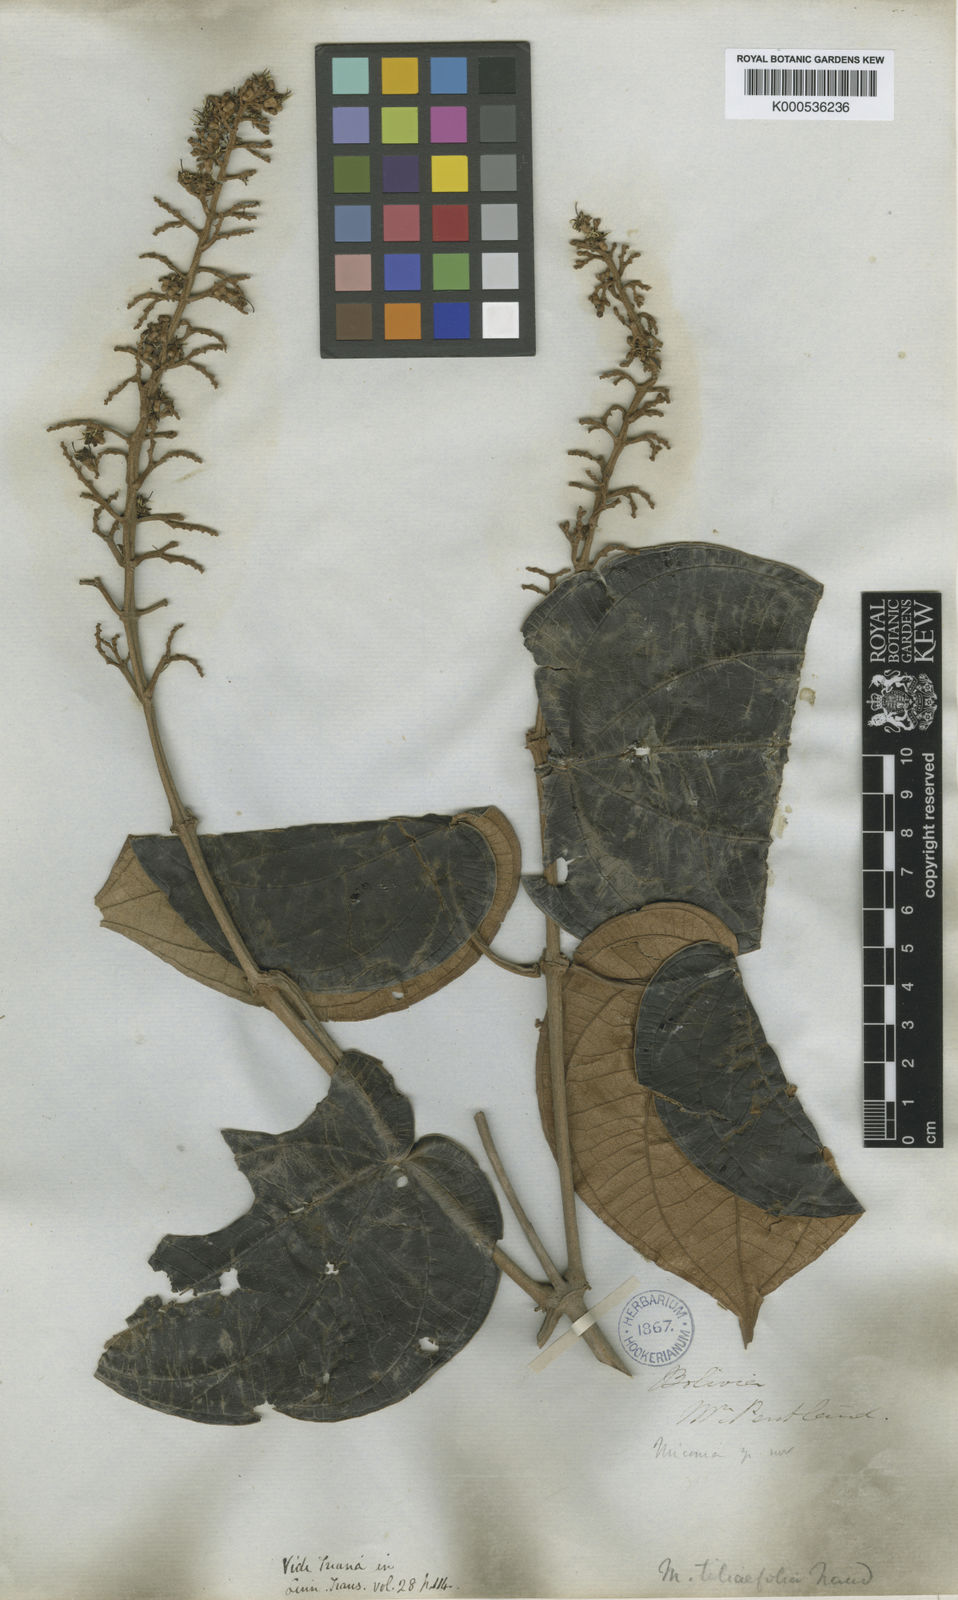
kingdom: Plantae
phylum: Tracheophyta
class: Magnoliopsida
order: Myrtales
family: Melastomataceae
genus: Miconia
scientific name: Miconia
